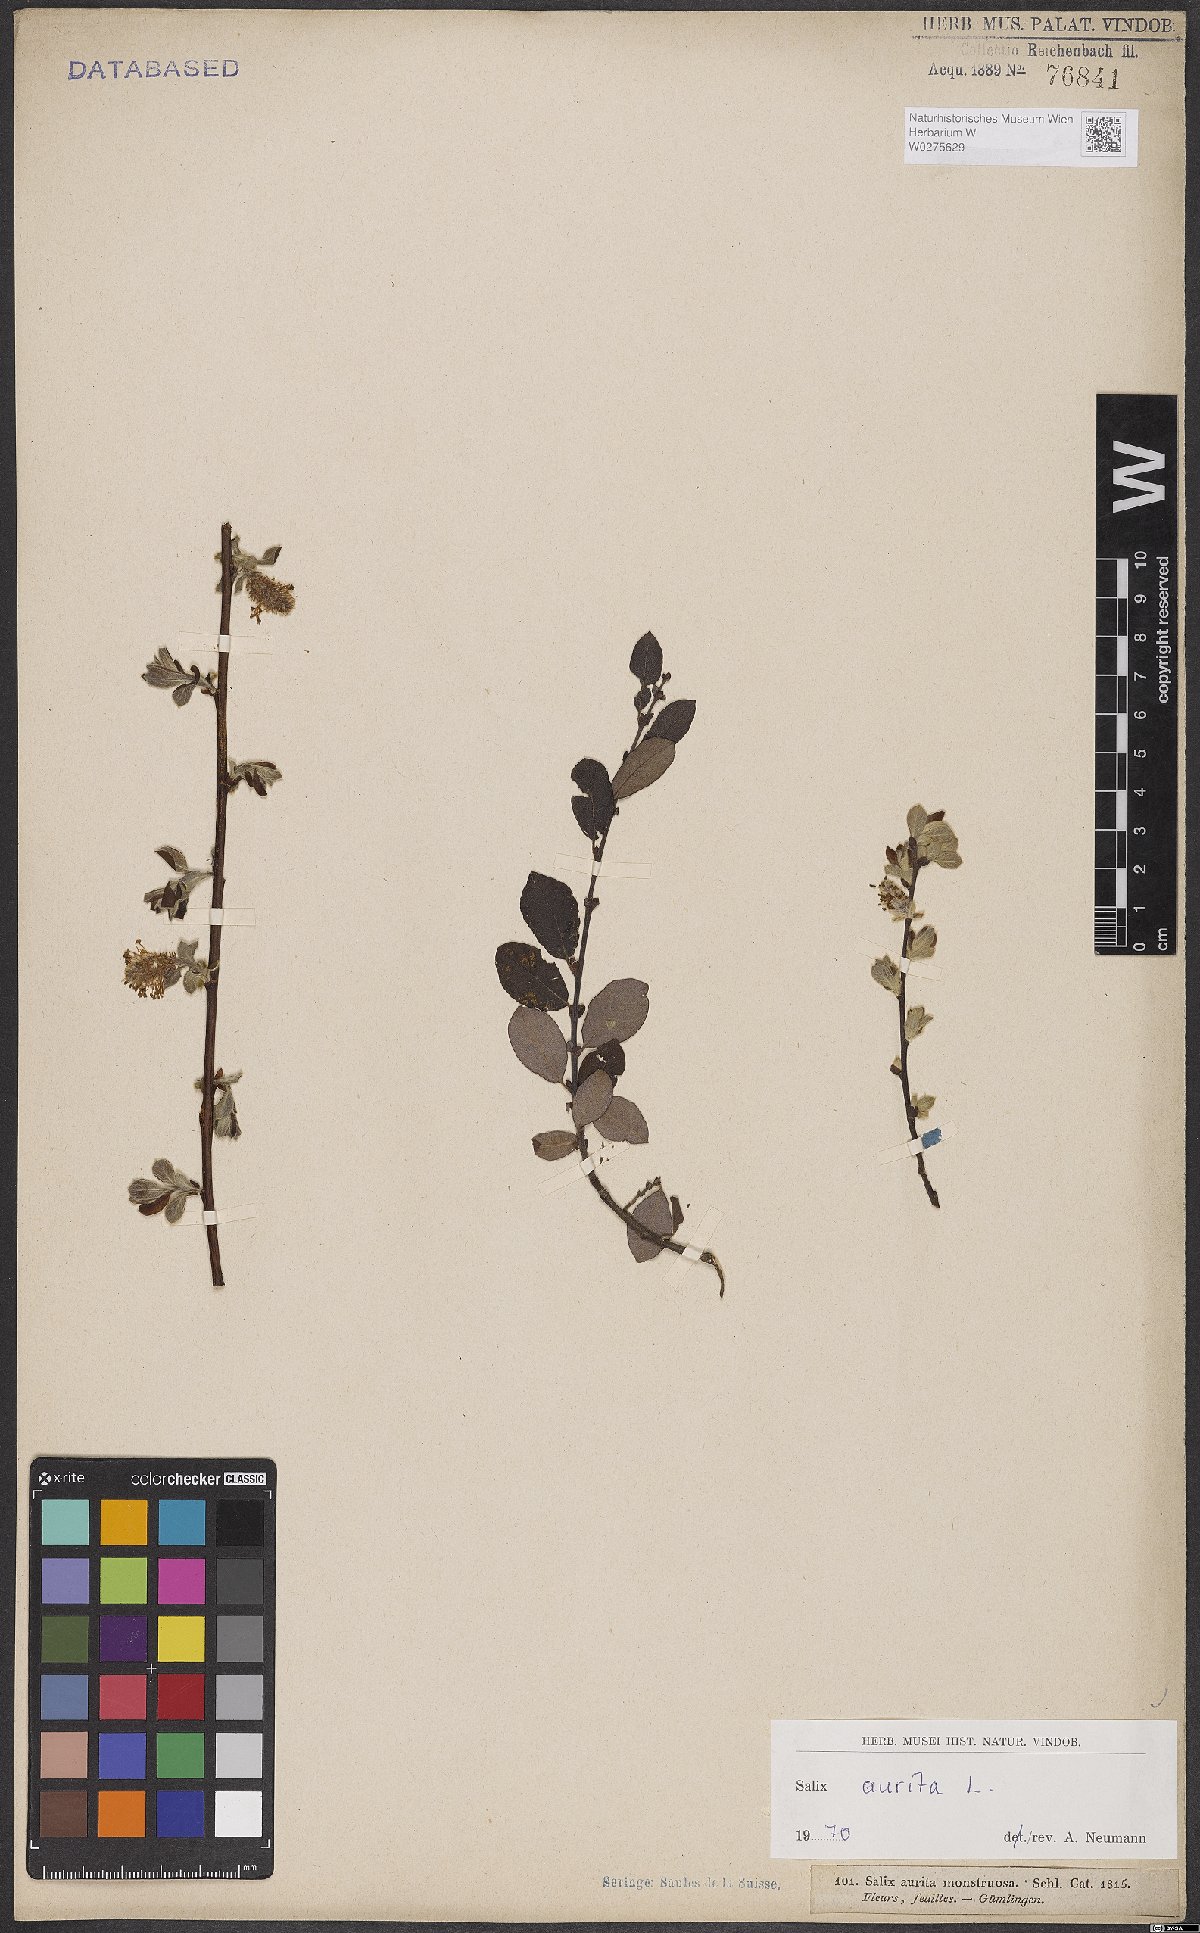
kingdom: Plantae
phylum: Tracheophyta
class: Magnoliopsida
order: Malpighiales
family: Salicaceae
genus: Salix
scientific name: Salix aurita
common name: Eared willow
